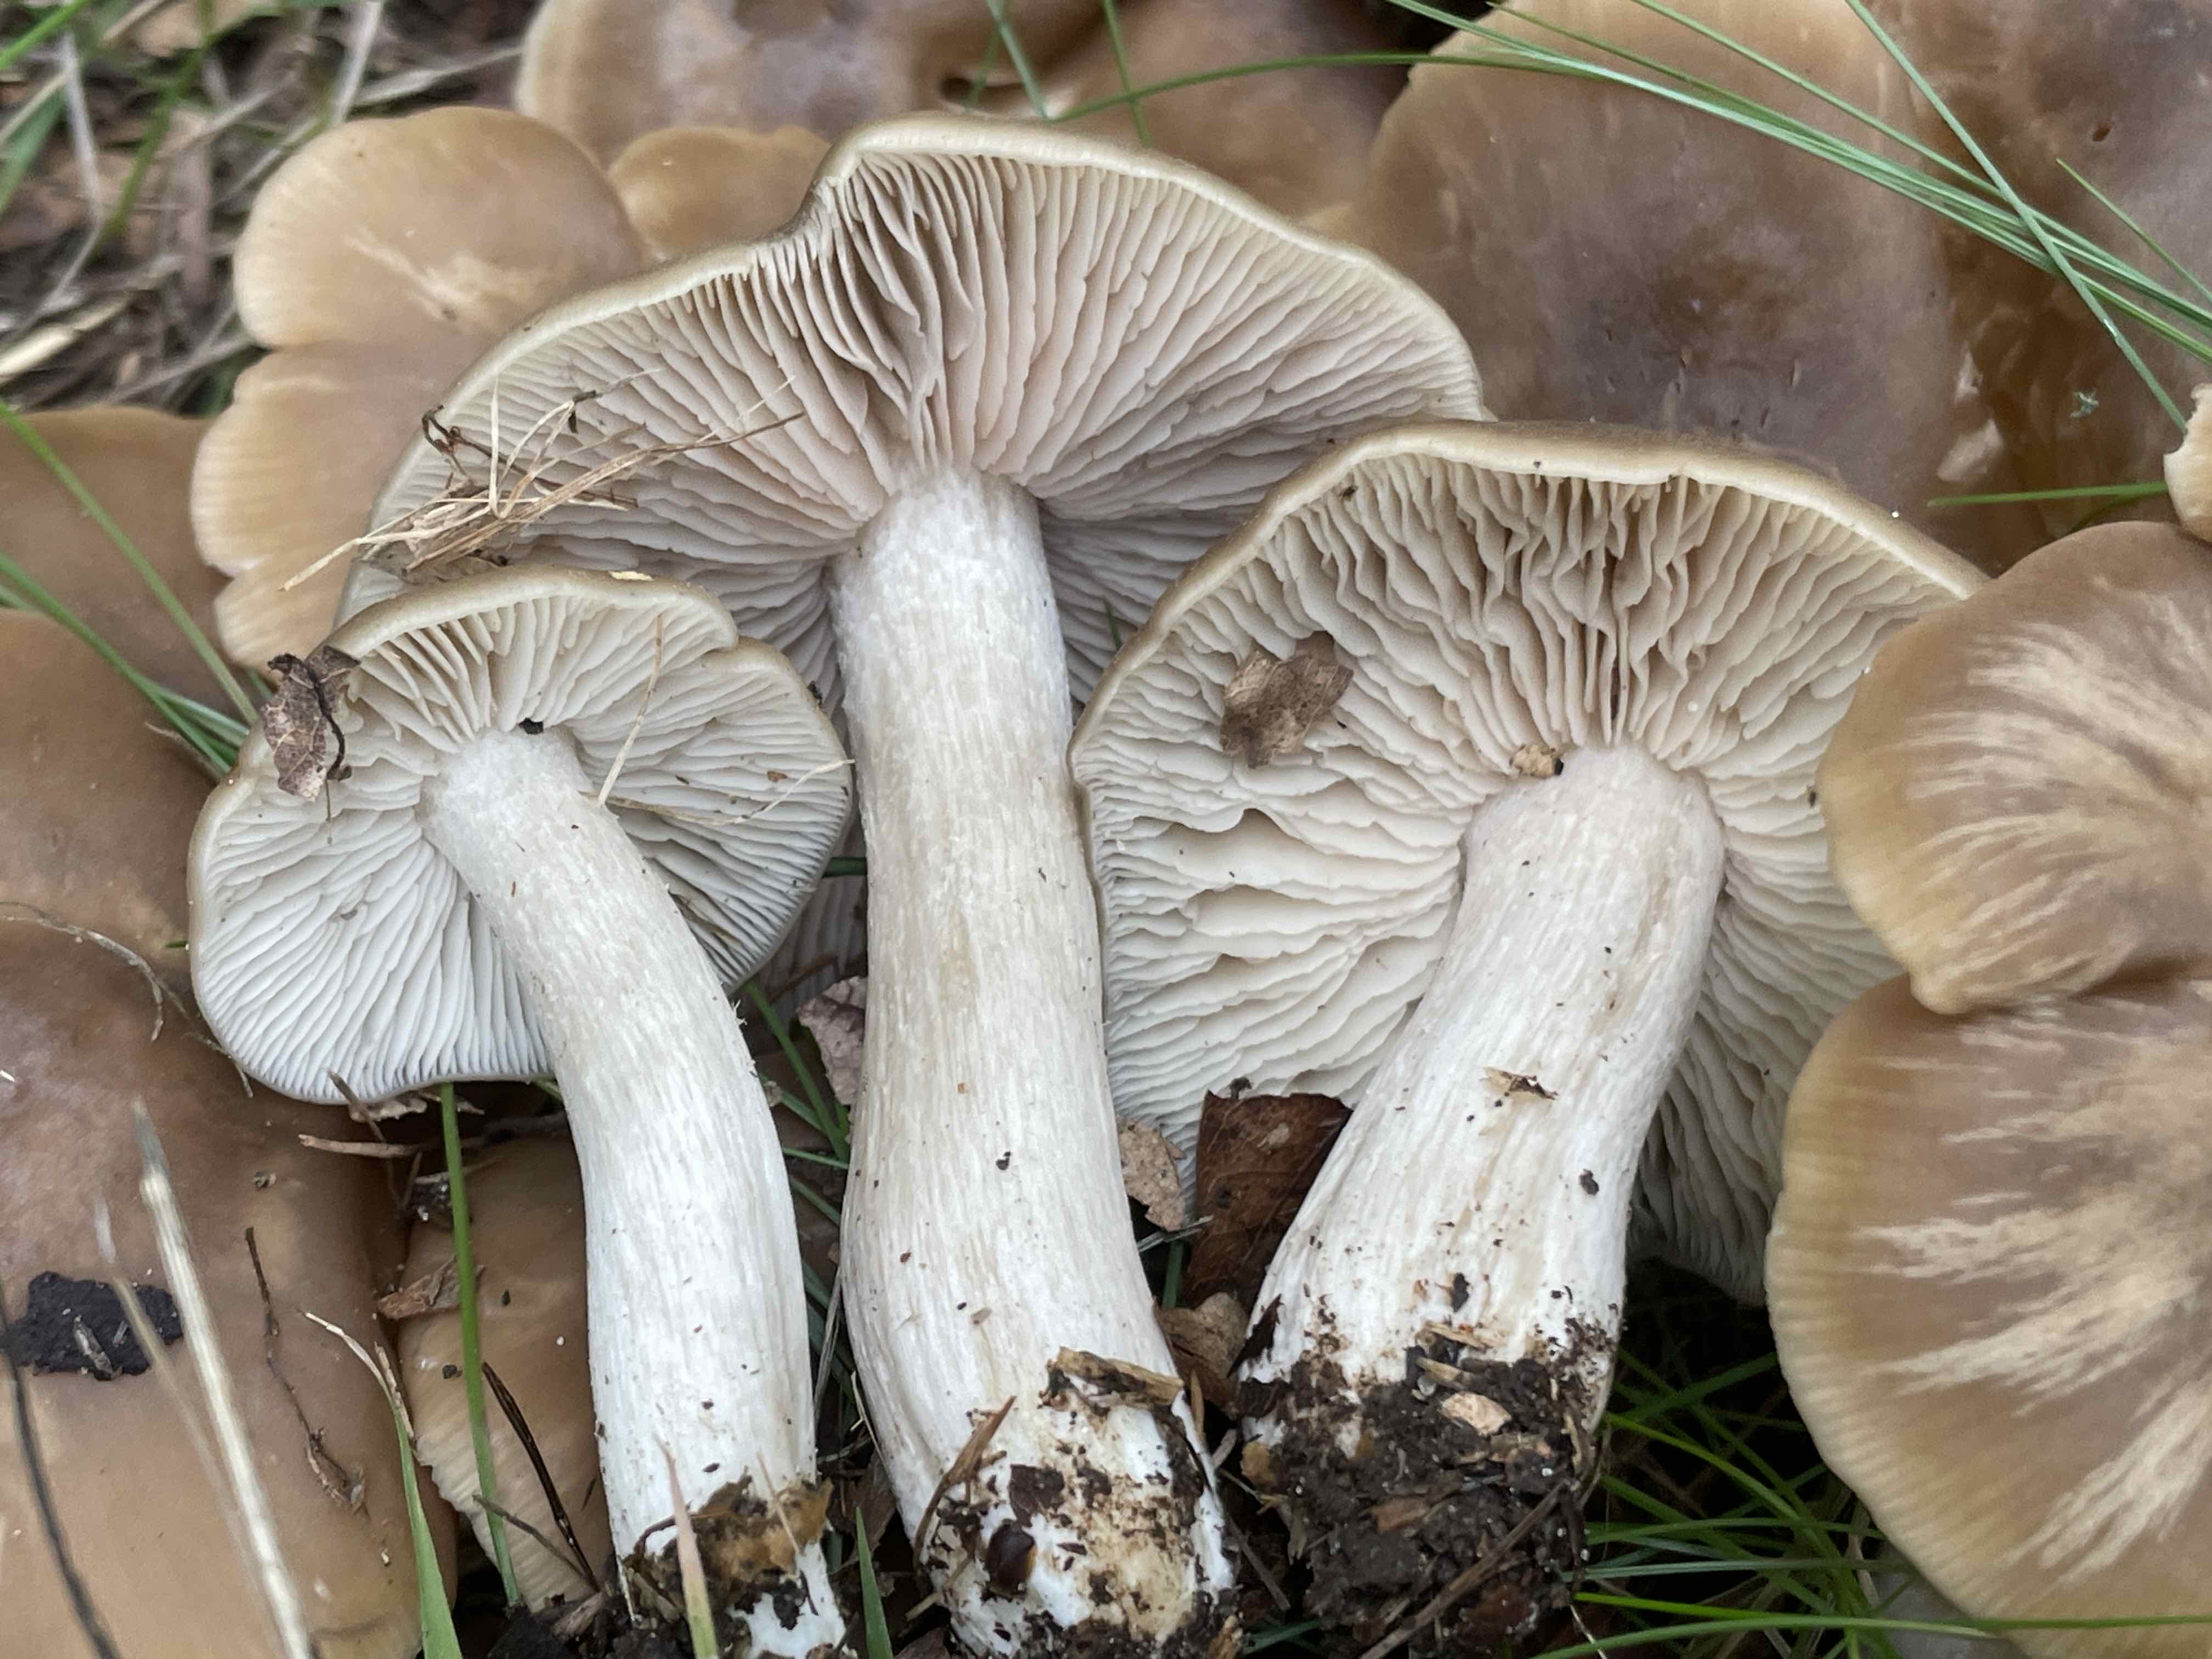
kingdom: Fungi
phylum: Basidiomycota
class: Agaricomycetes
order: Agaricales
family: Entolomataceae
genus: Entoloma
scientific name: Entoloma lividoalbum
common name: lysstokket rødblad
